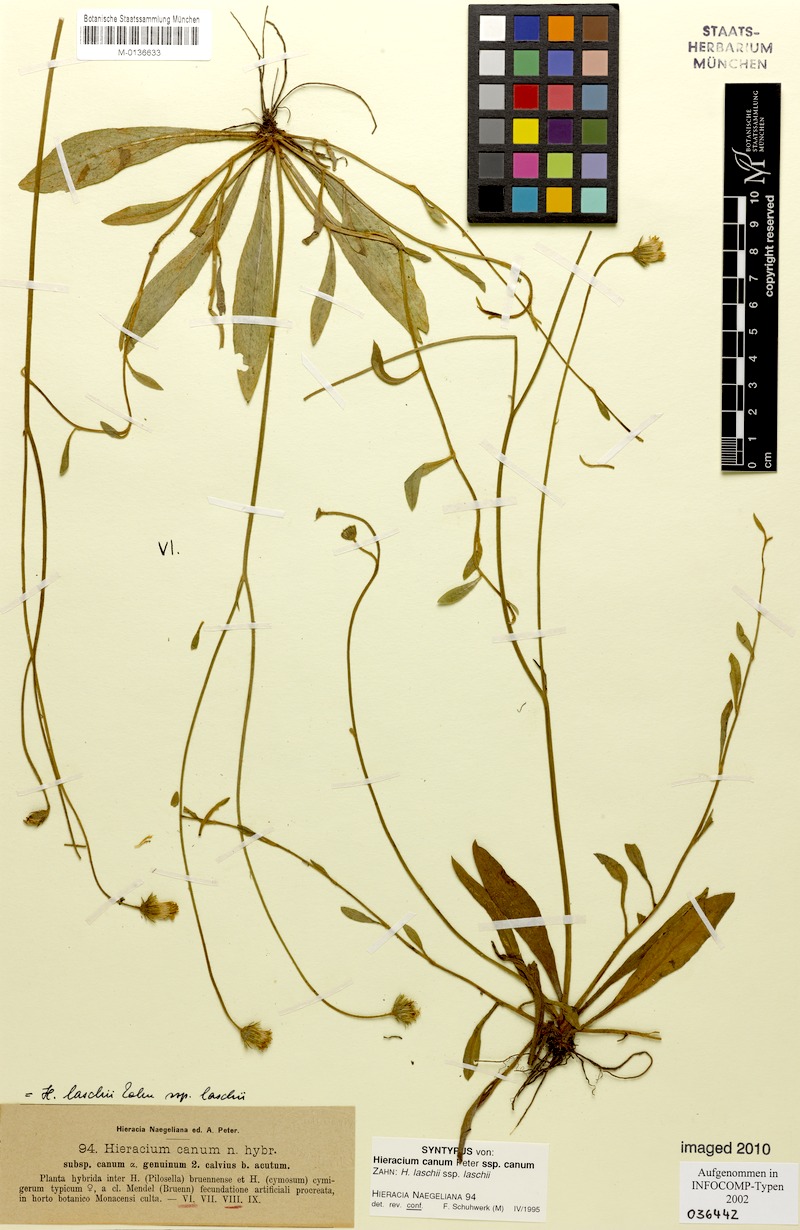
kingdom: Plantae
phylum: Tracheophyta
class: Magnoliopsida
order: Asterales
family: Asteraceae
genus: Pilosella
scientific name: Pilosella acutifolia
